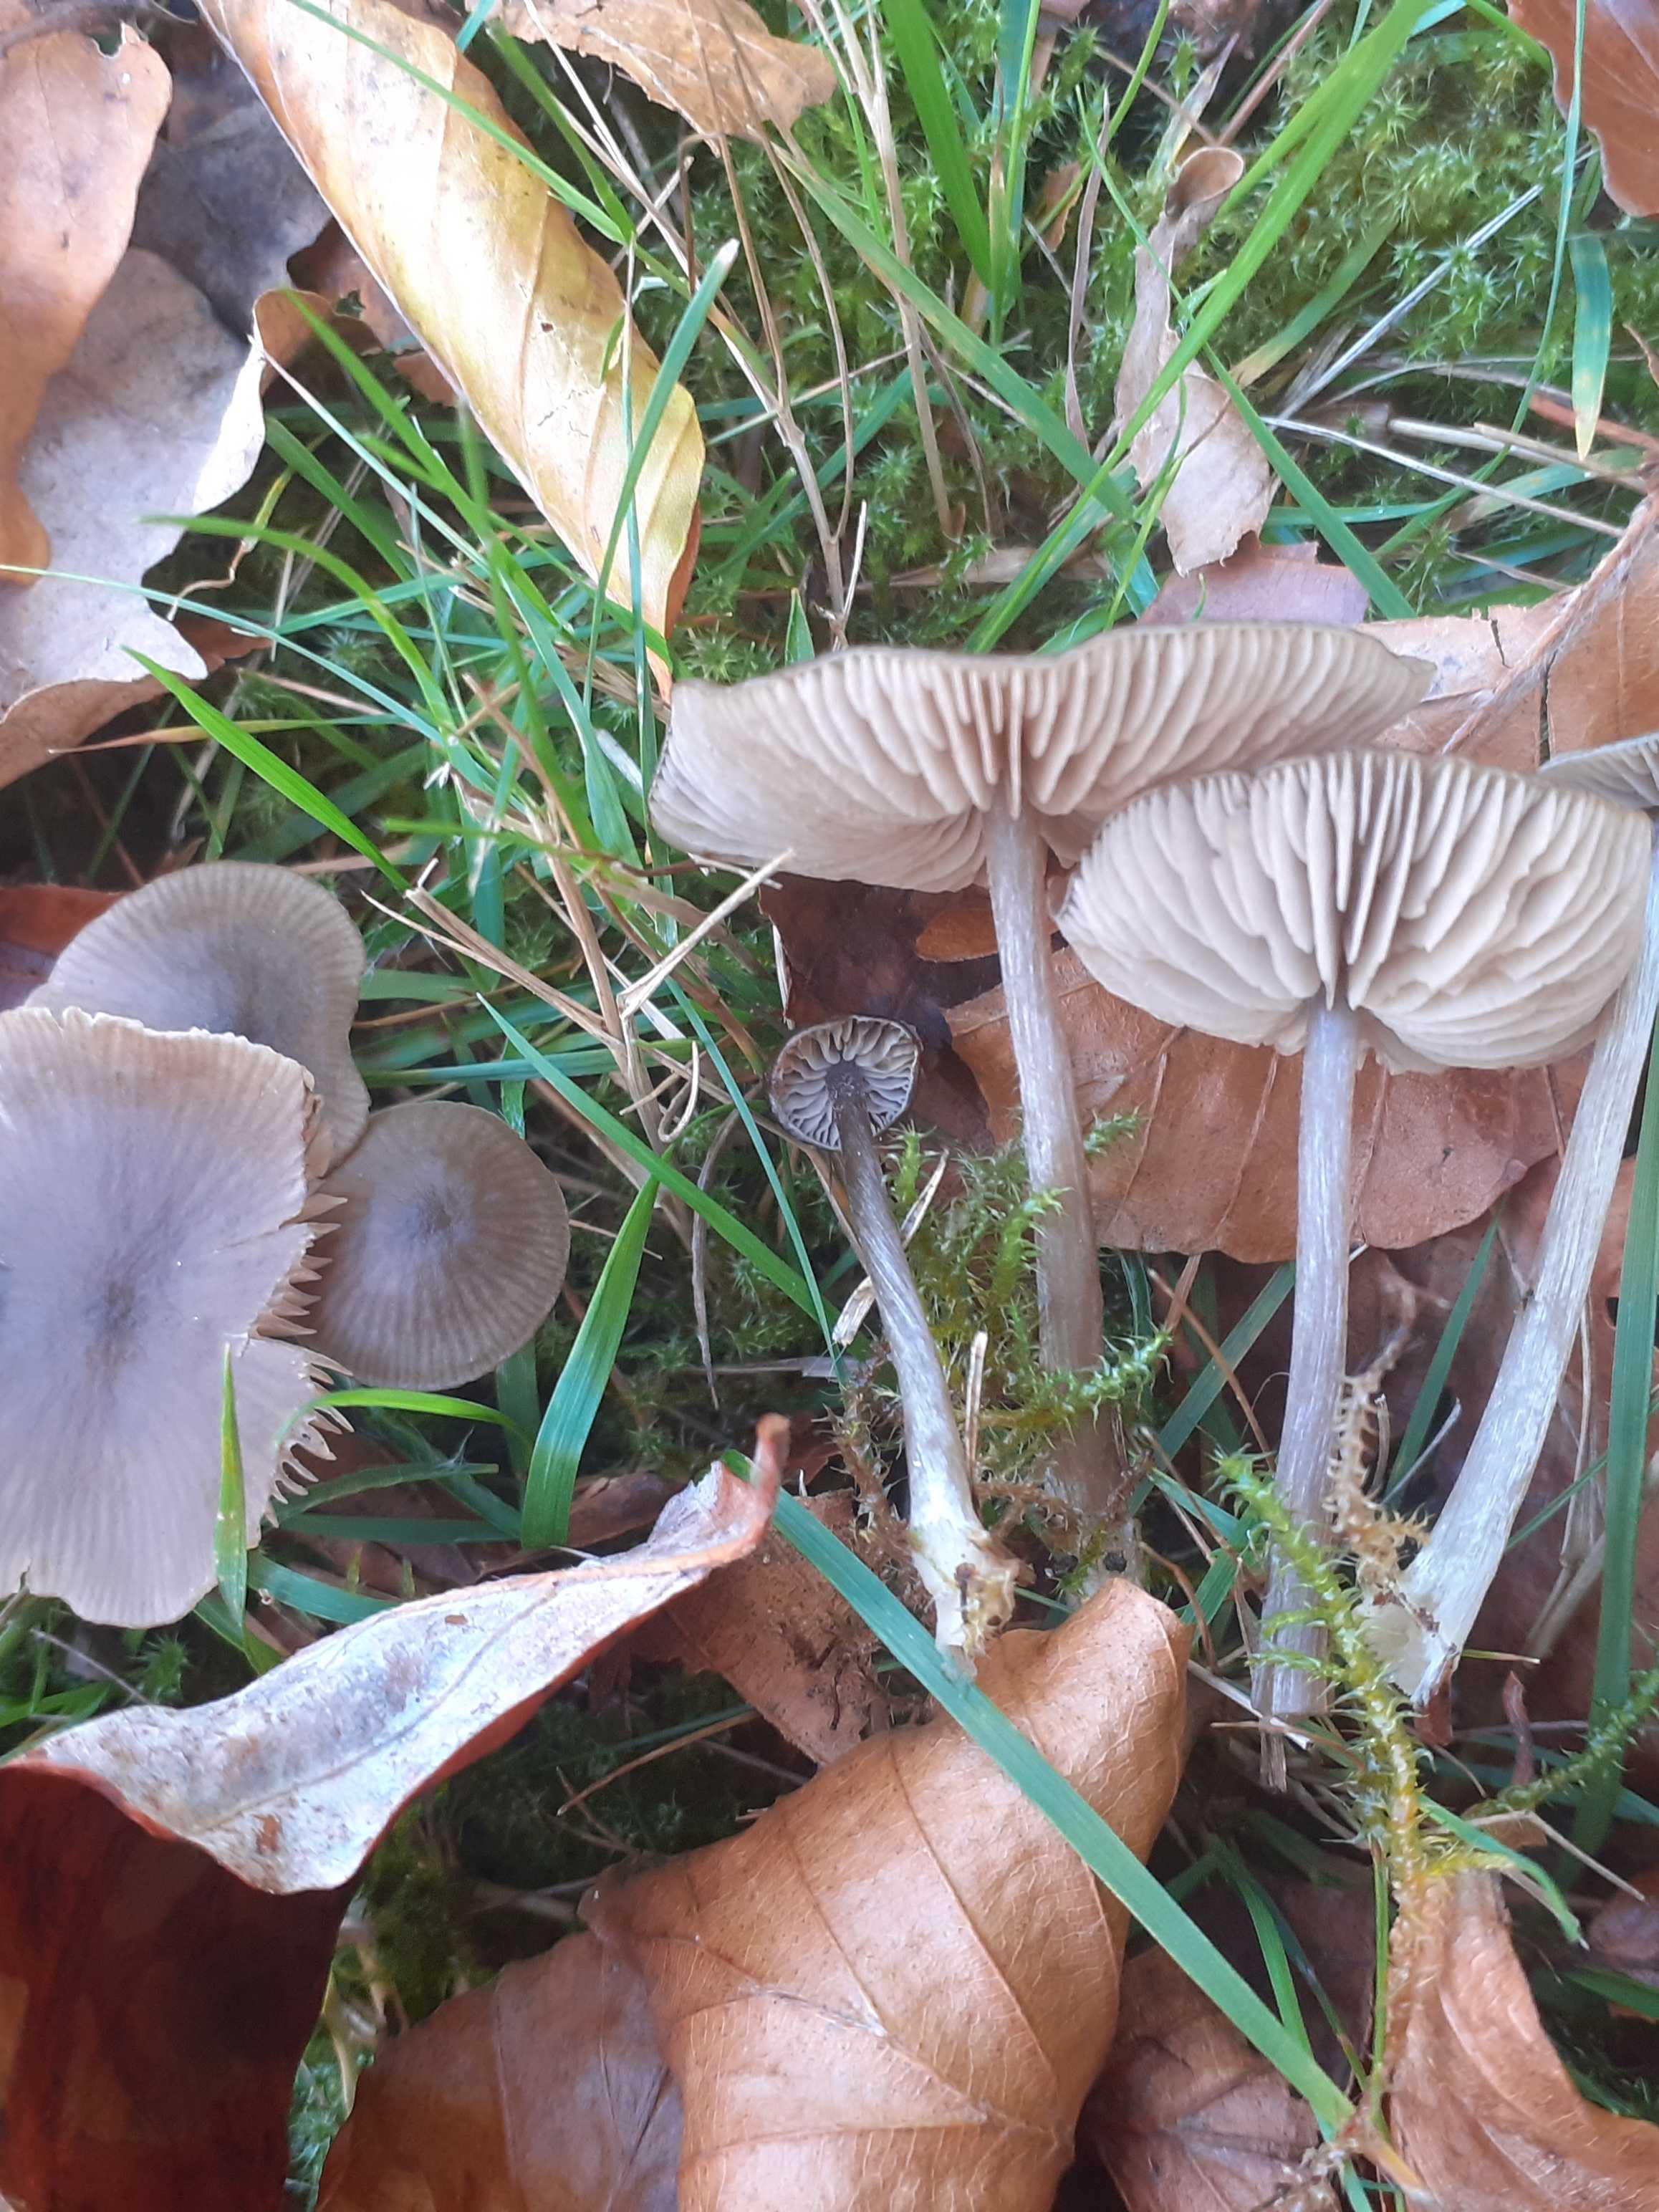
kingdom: Fungi
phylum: Basidiomycota
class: Agaricomycetes
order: Agaricales
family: Entolomataceae
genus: Entoloma
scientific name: Entoloma sericeum
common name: silkeglinsende rødblad
